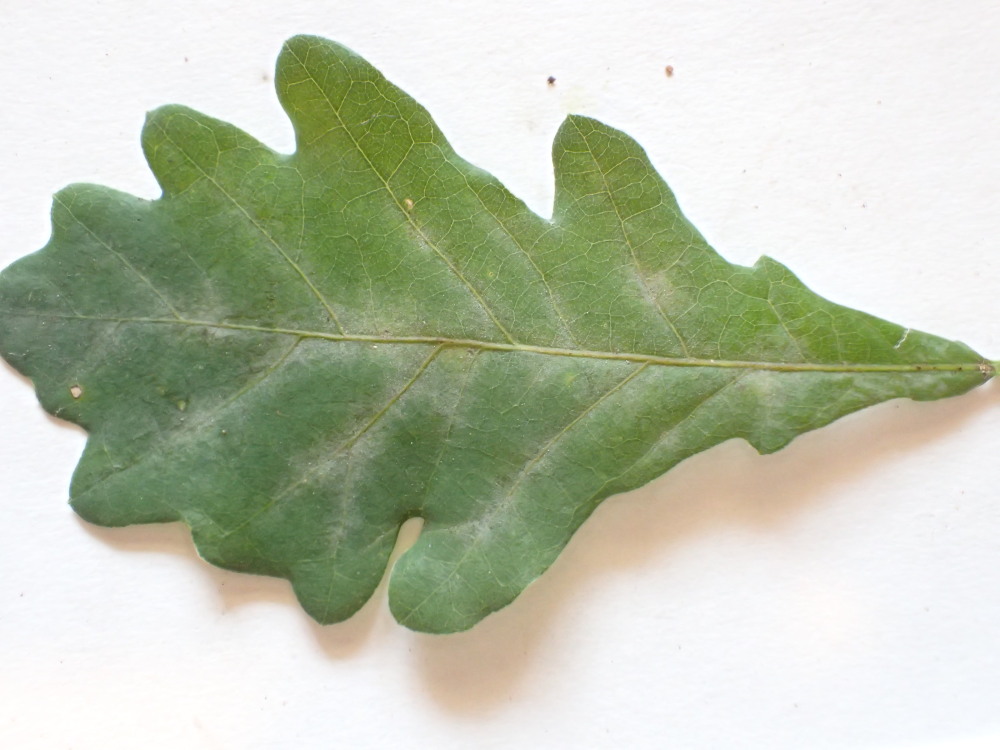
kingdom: Fungi
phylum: Ascomycota
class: Leotiomycetes
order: Helotiales
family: Erysiphaceae
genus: Erysiphe
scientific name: Erysiphe alphitoides
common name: ege-meldug
